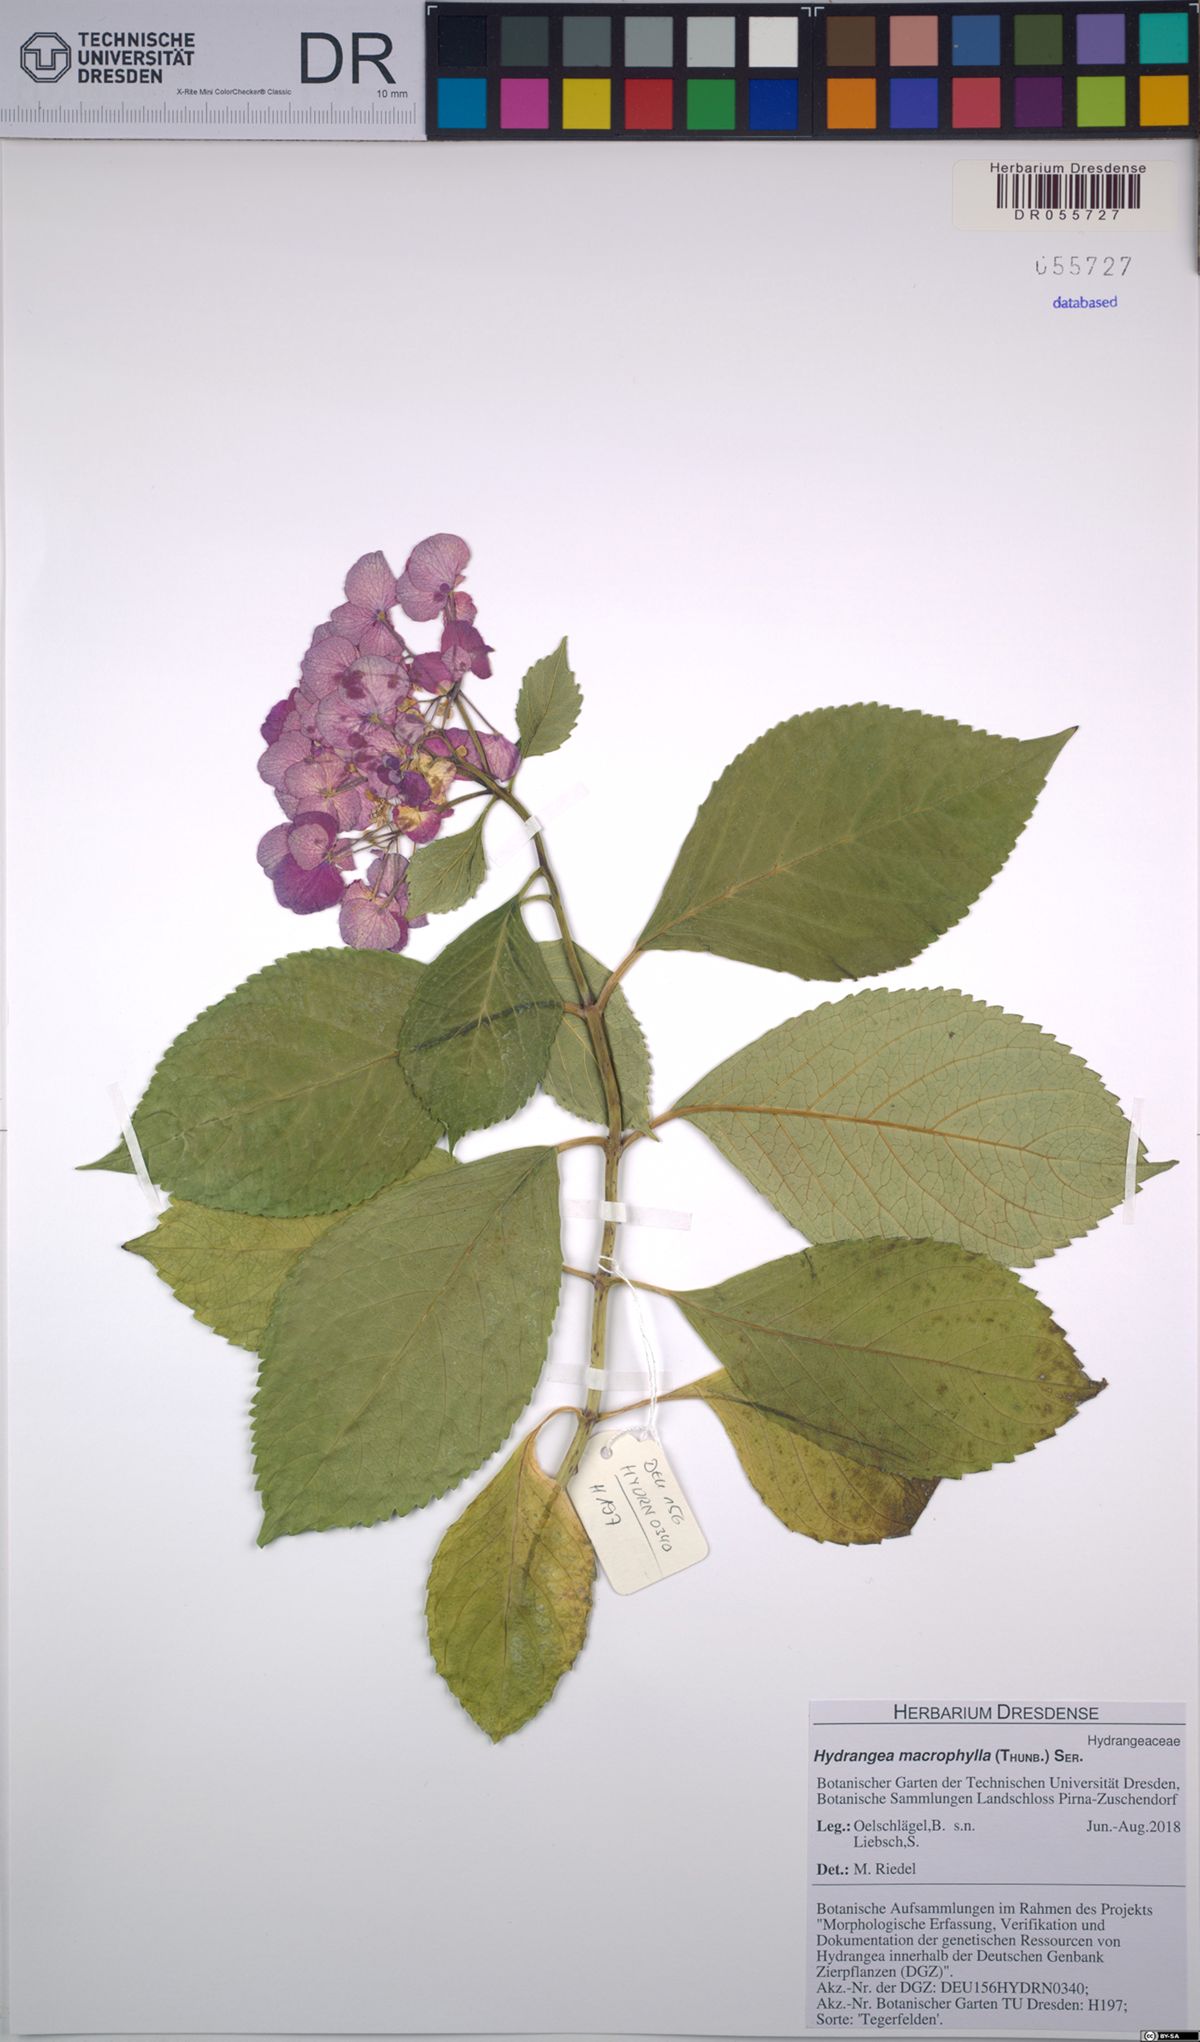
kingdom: Plantae
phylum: Tracheophyta
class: Magnoliopsida
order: Cornales
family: Hydrangeaceae
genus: Hydrangea
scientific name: Hydrangea macrophylla
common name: Hydrangea
